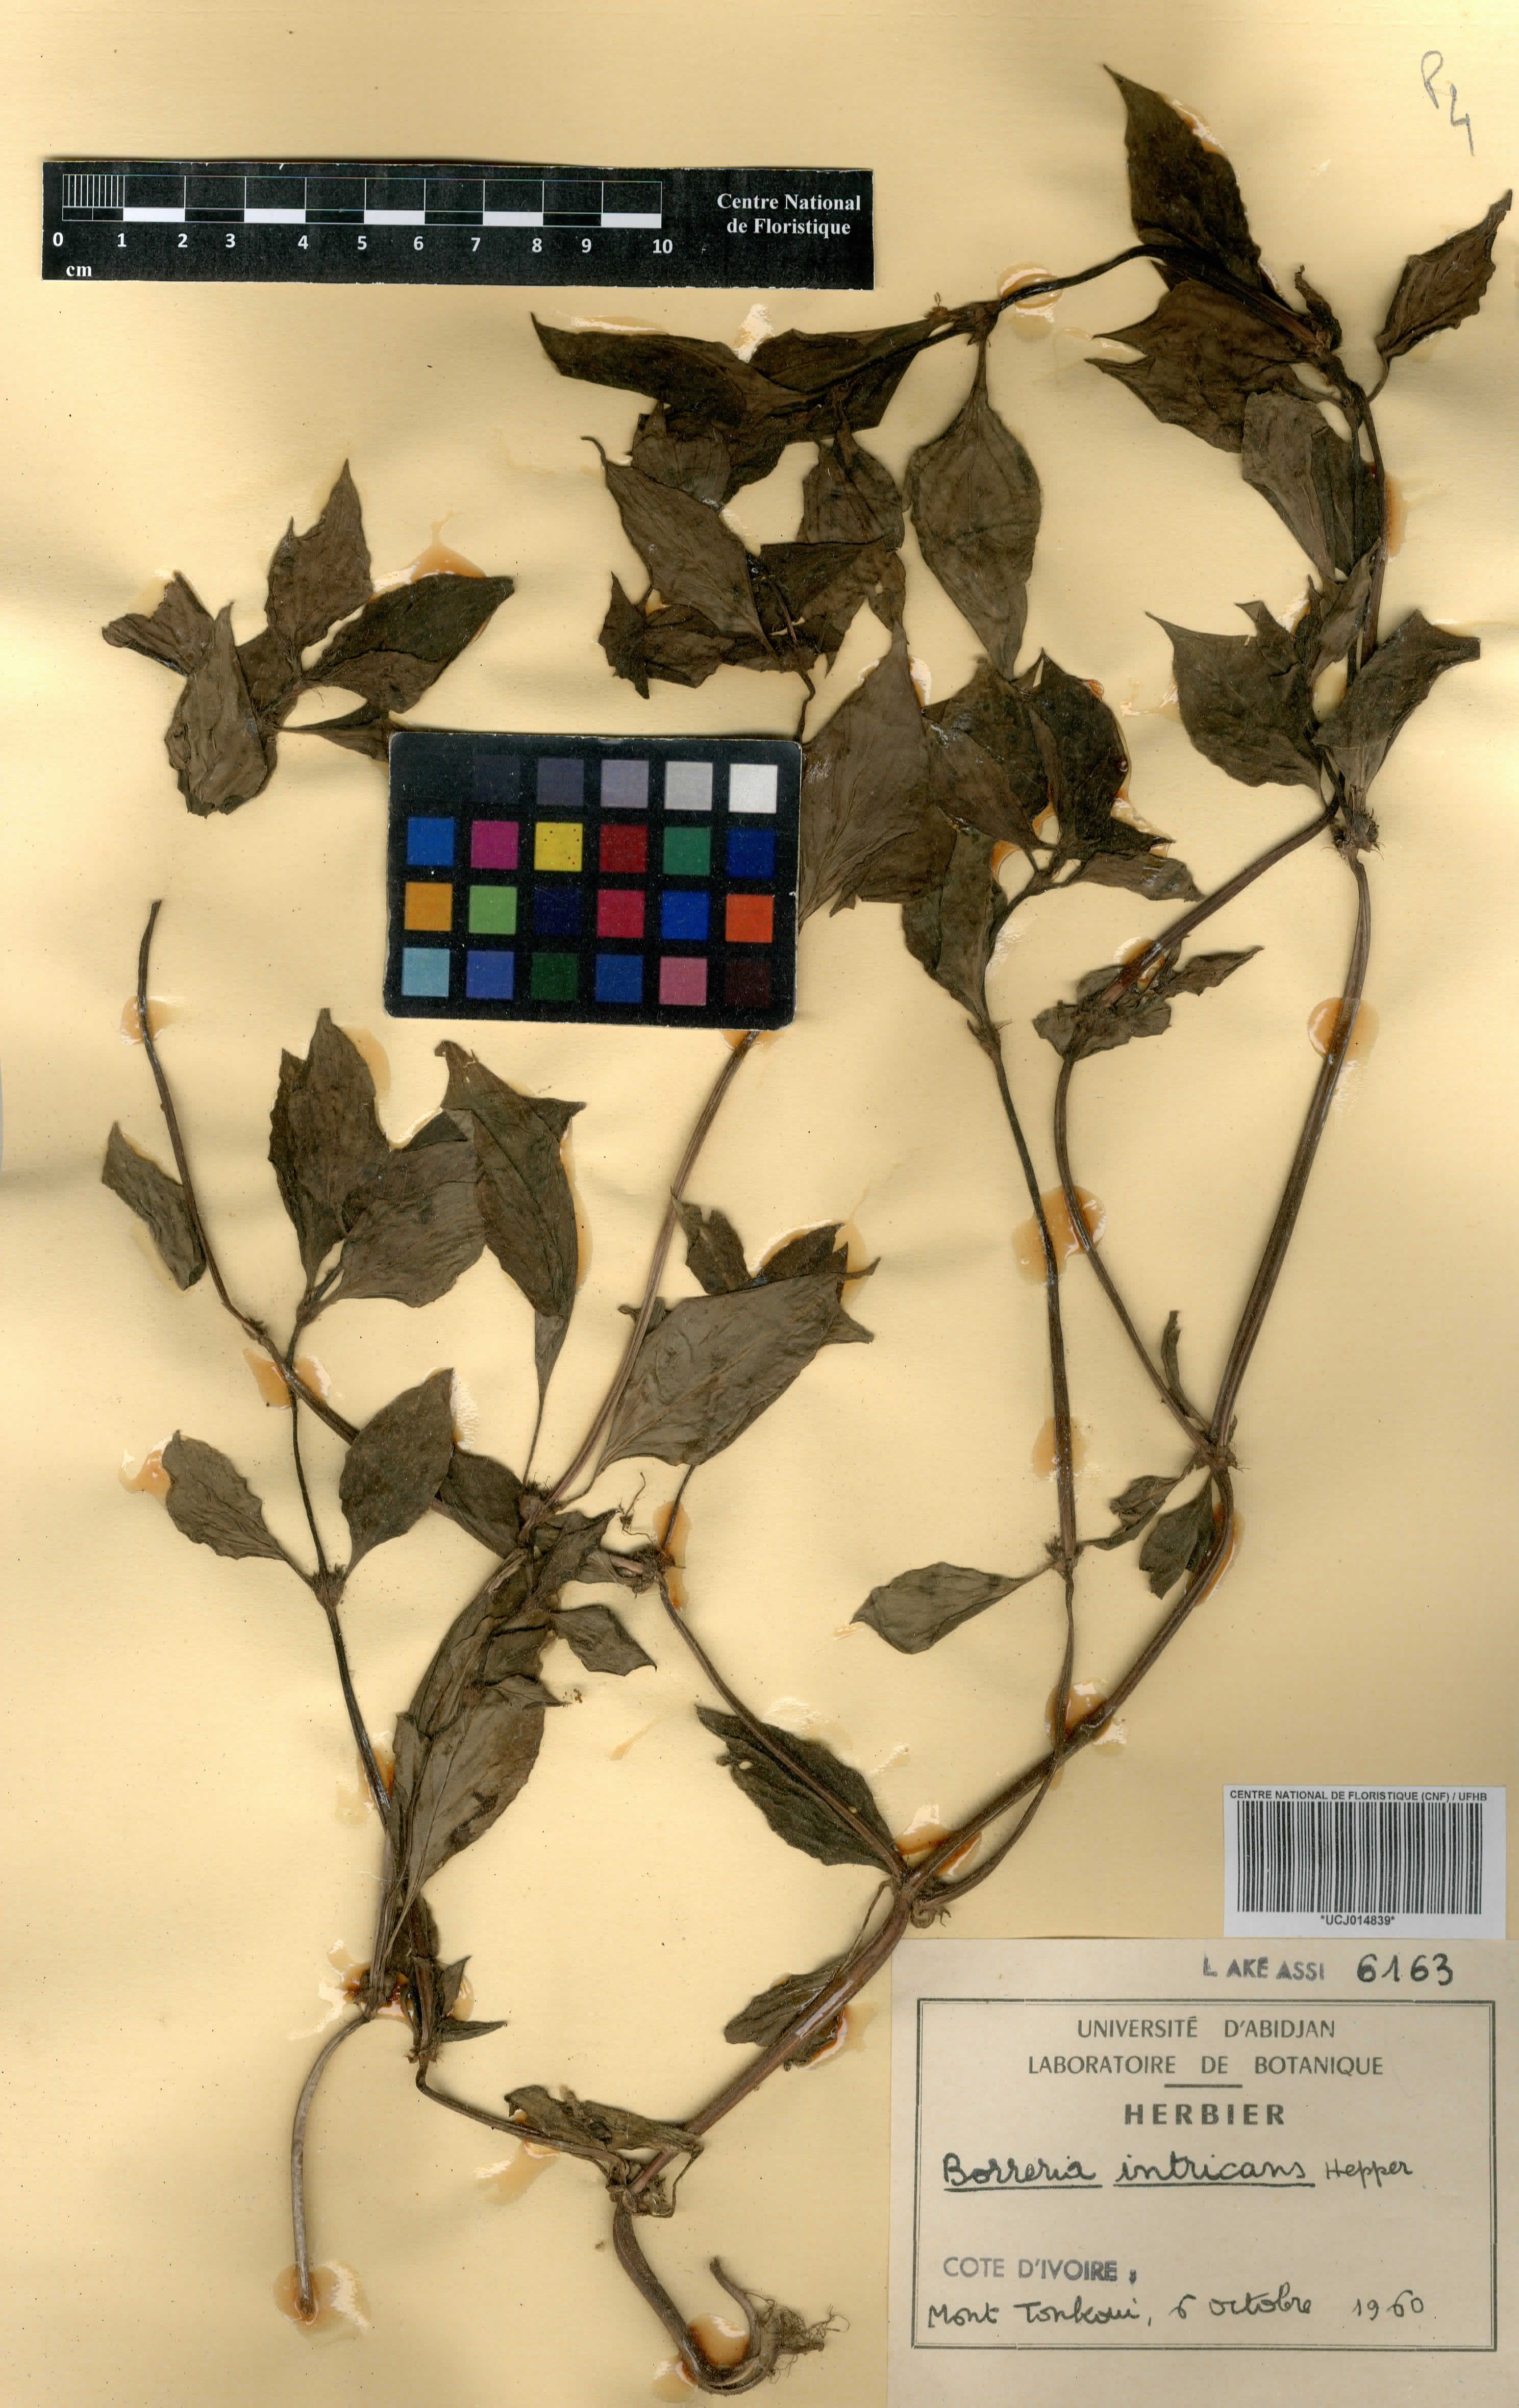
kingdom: Plantae
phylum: Tracheophyta
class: Magnoliopsida
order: Gentianales
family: Rubiaceae
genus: Spermacoce
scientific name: Spermacoce intricans
